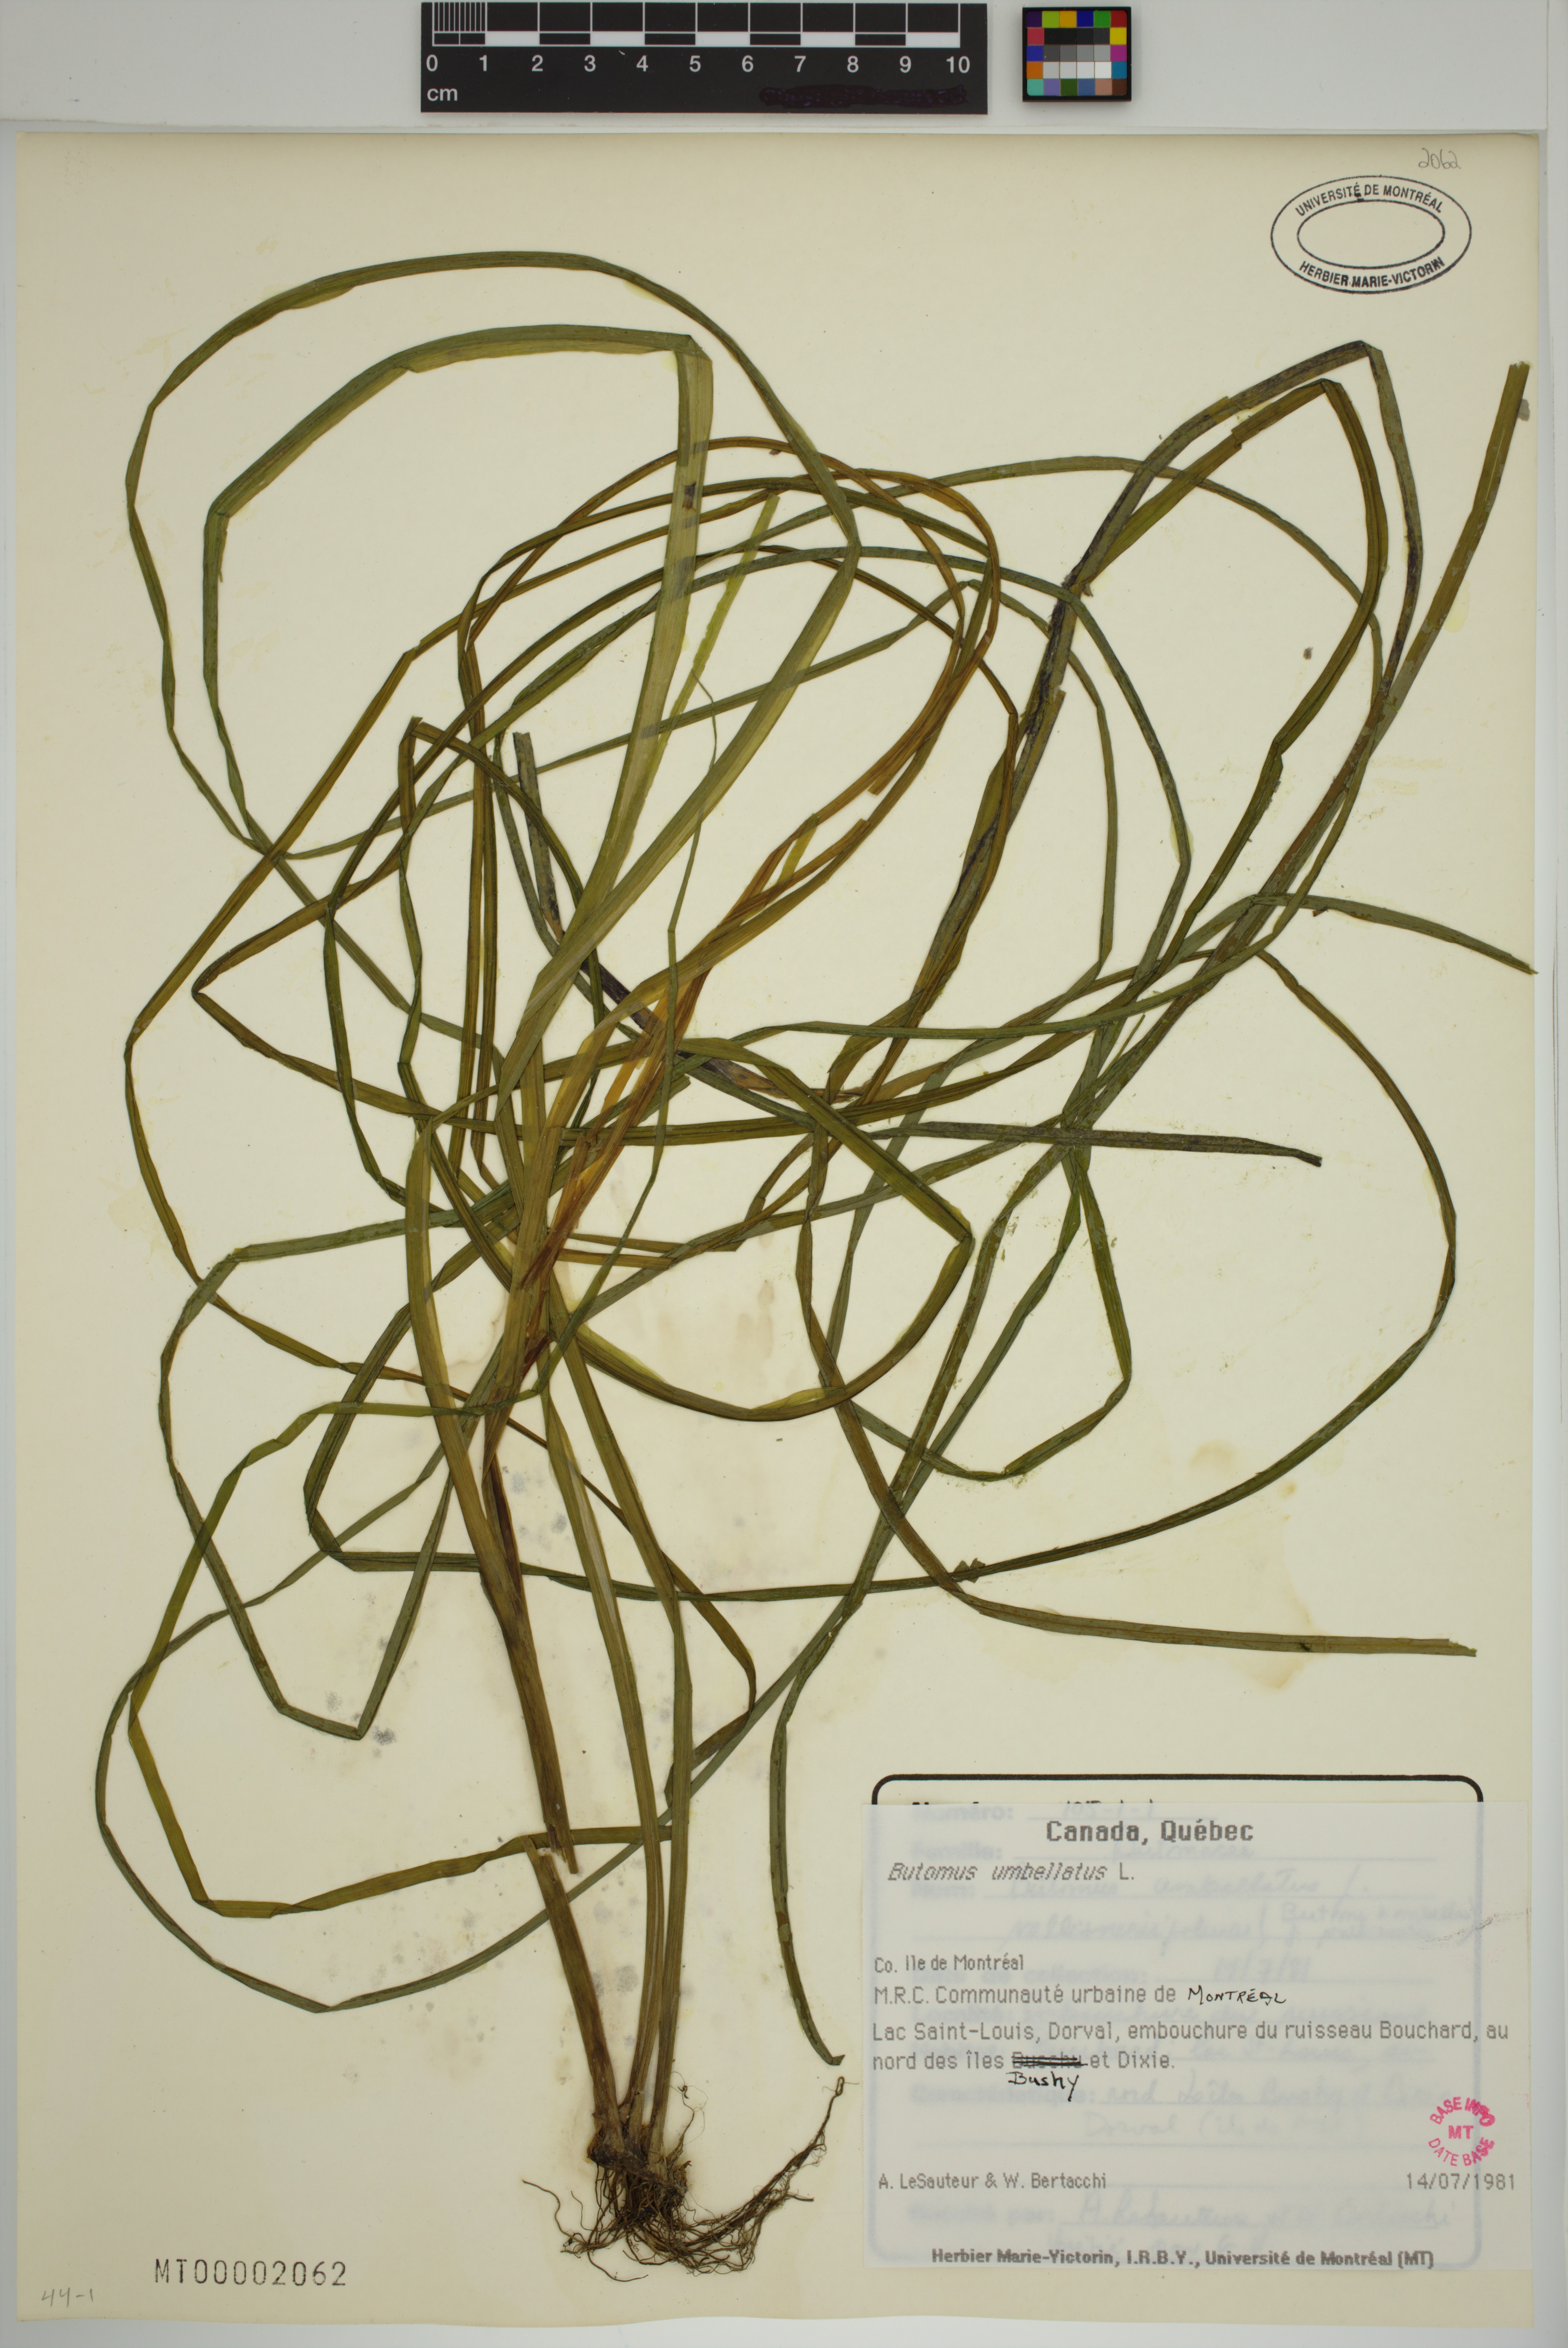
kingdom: Plantae
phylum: Tracheophyta
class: Liliopsida
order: Alismatales
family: Butomaceae
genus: Butomus
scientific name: Butomus umbellatus
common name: Flowering-rush
